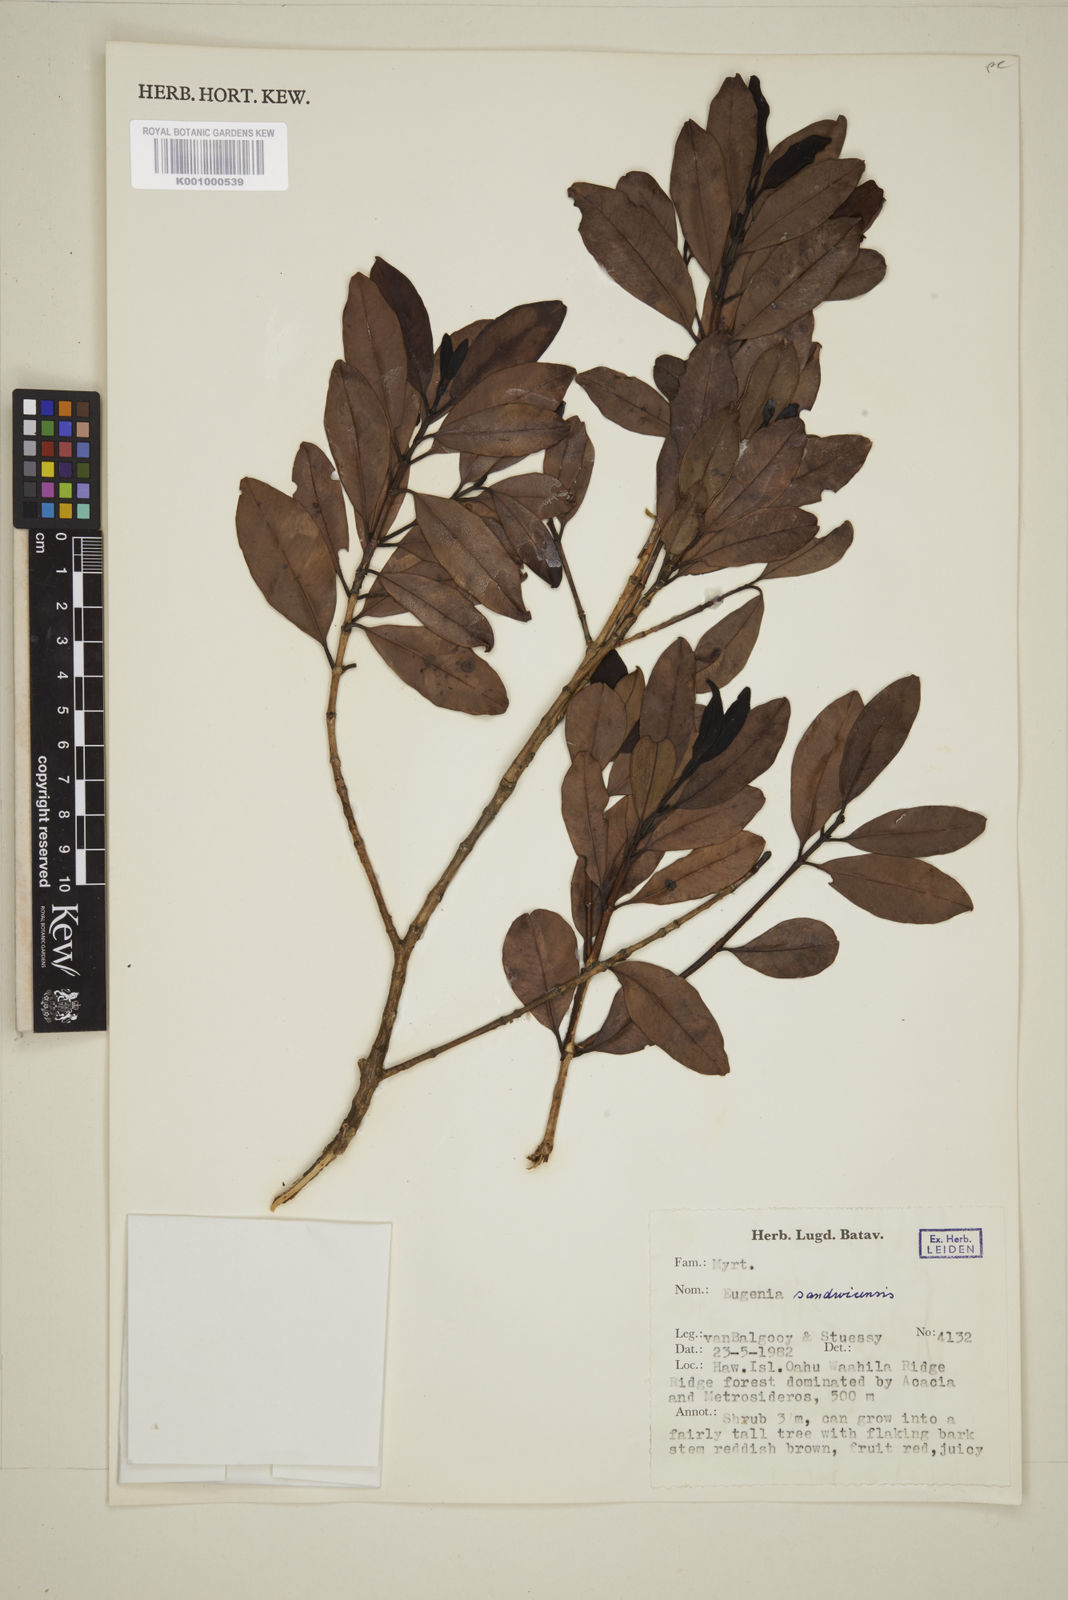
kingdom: Plantae
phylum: Tracheophyta
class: Magnoliopsida
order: Myrtales
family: Myrtaceae
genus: Syzygium
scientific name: Syzygium sandwicense
